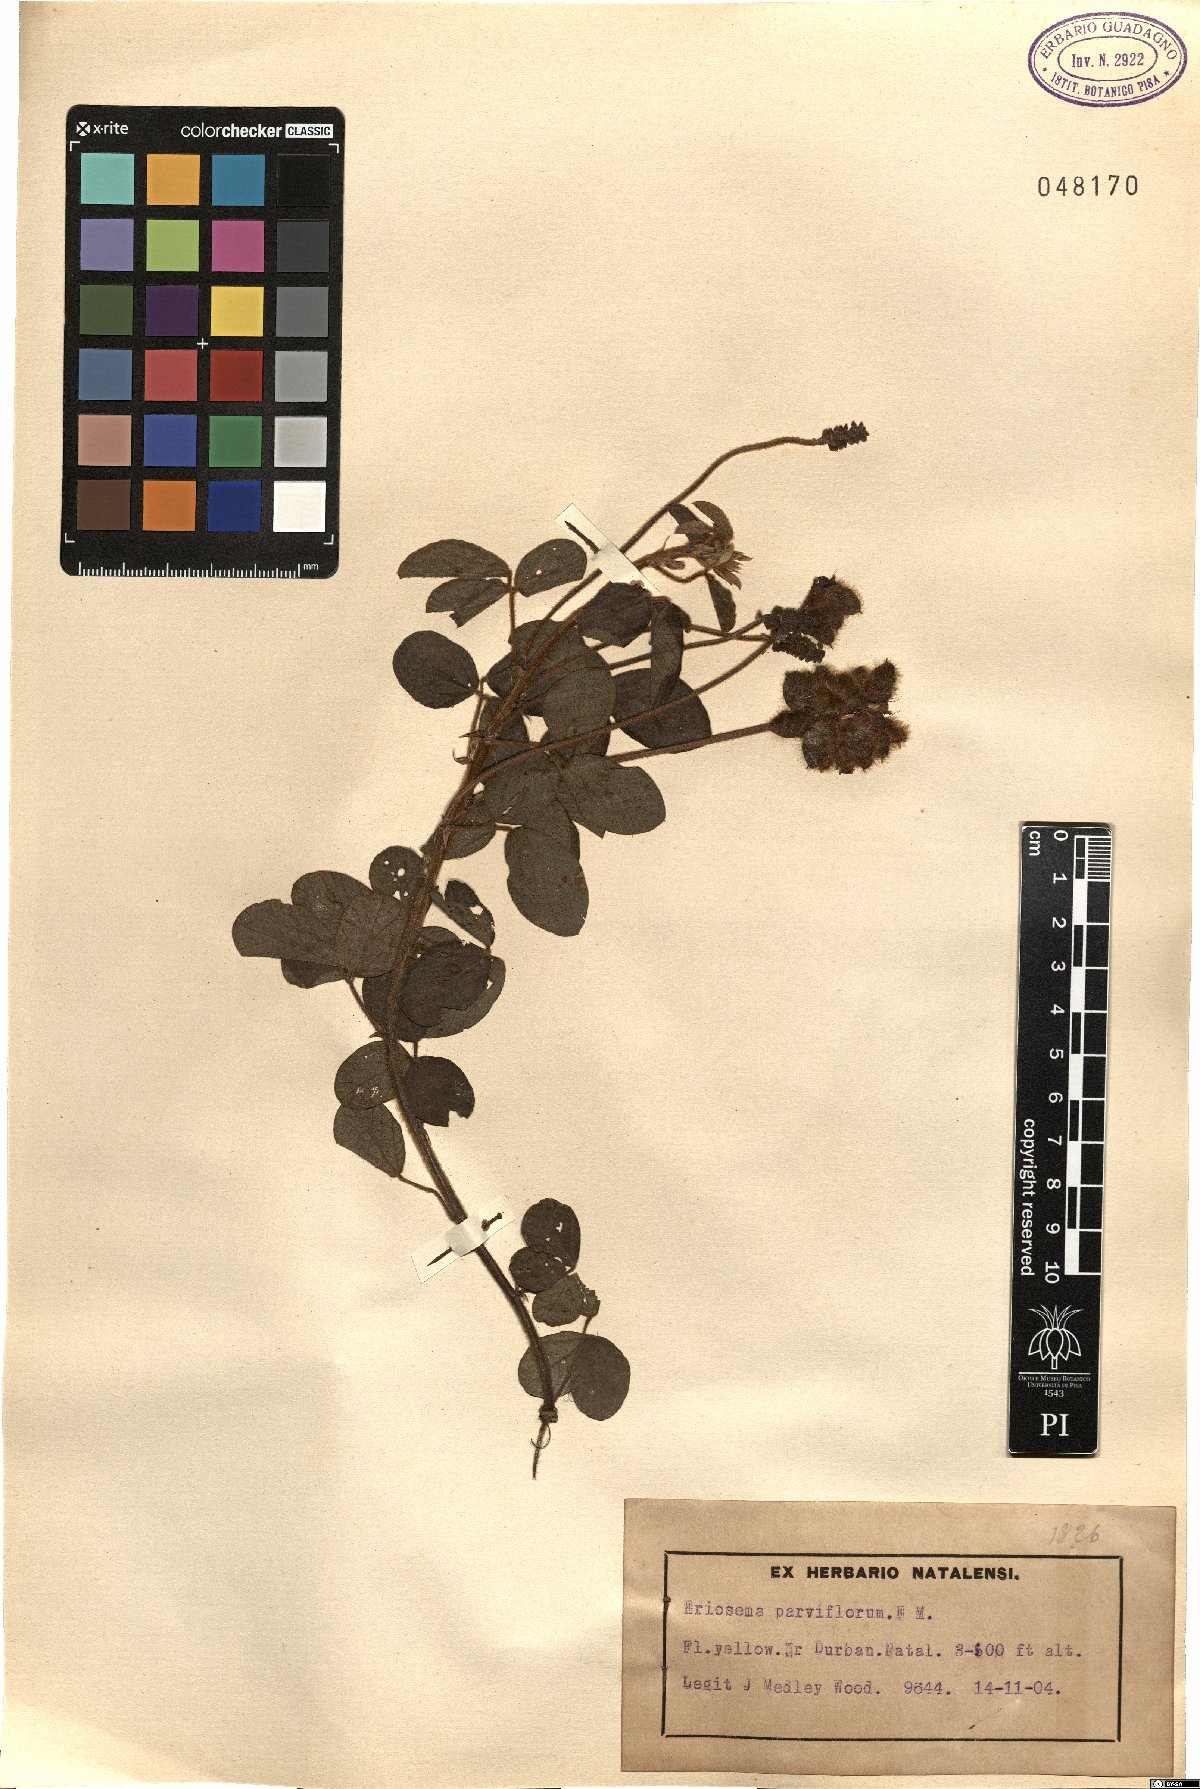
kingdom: Plantae
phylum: Tracheophyta
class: Magnoliopsida
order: Fabales
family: Fabaceae
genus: Eriosema
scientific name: Eriosema parviflorum
